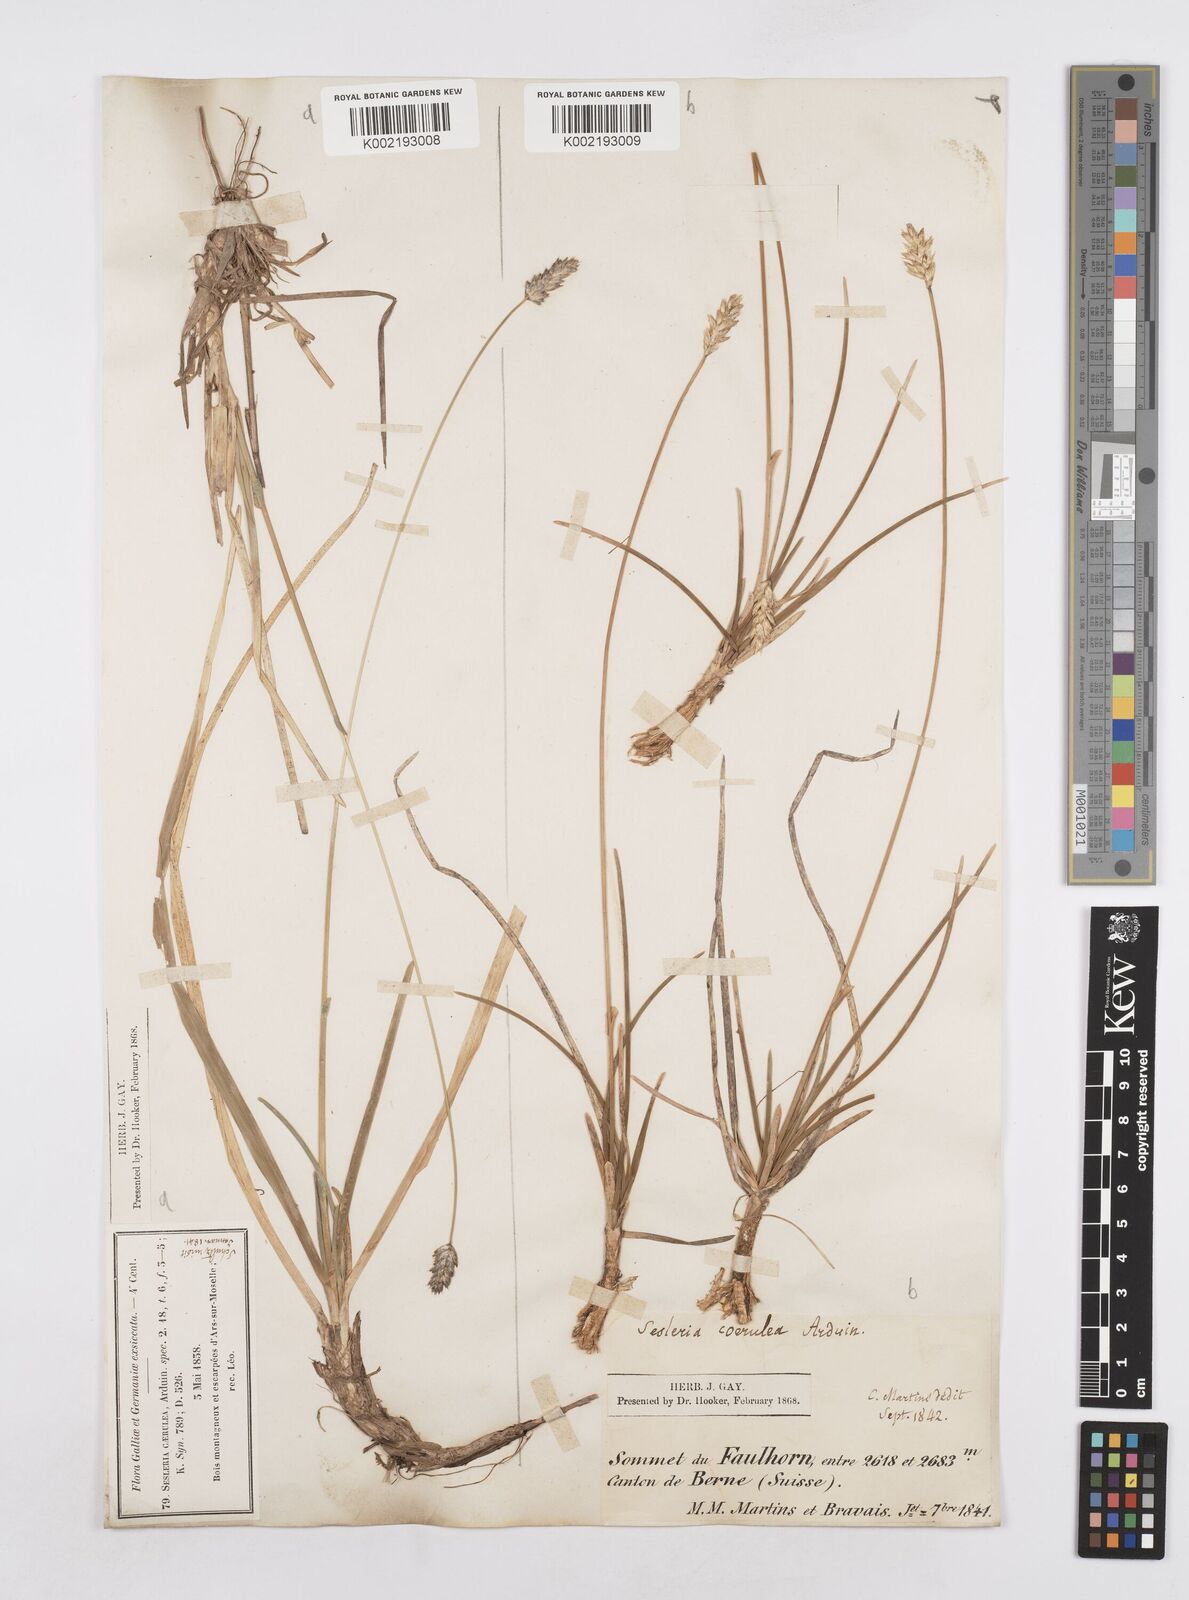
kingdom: Plantae
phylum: Tracheophyta
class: Liliopsida
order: Poales
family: Poaceae
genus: Sesleria
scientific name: Sesleria caerulea
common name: Blue moor-grass
